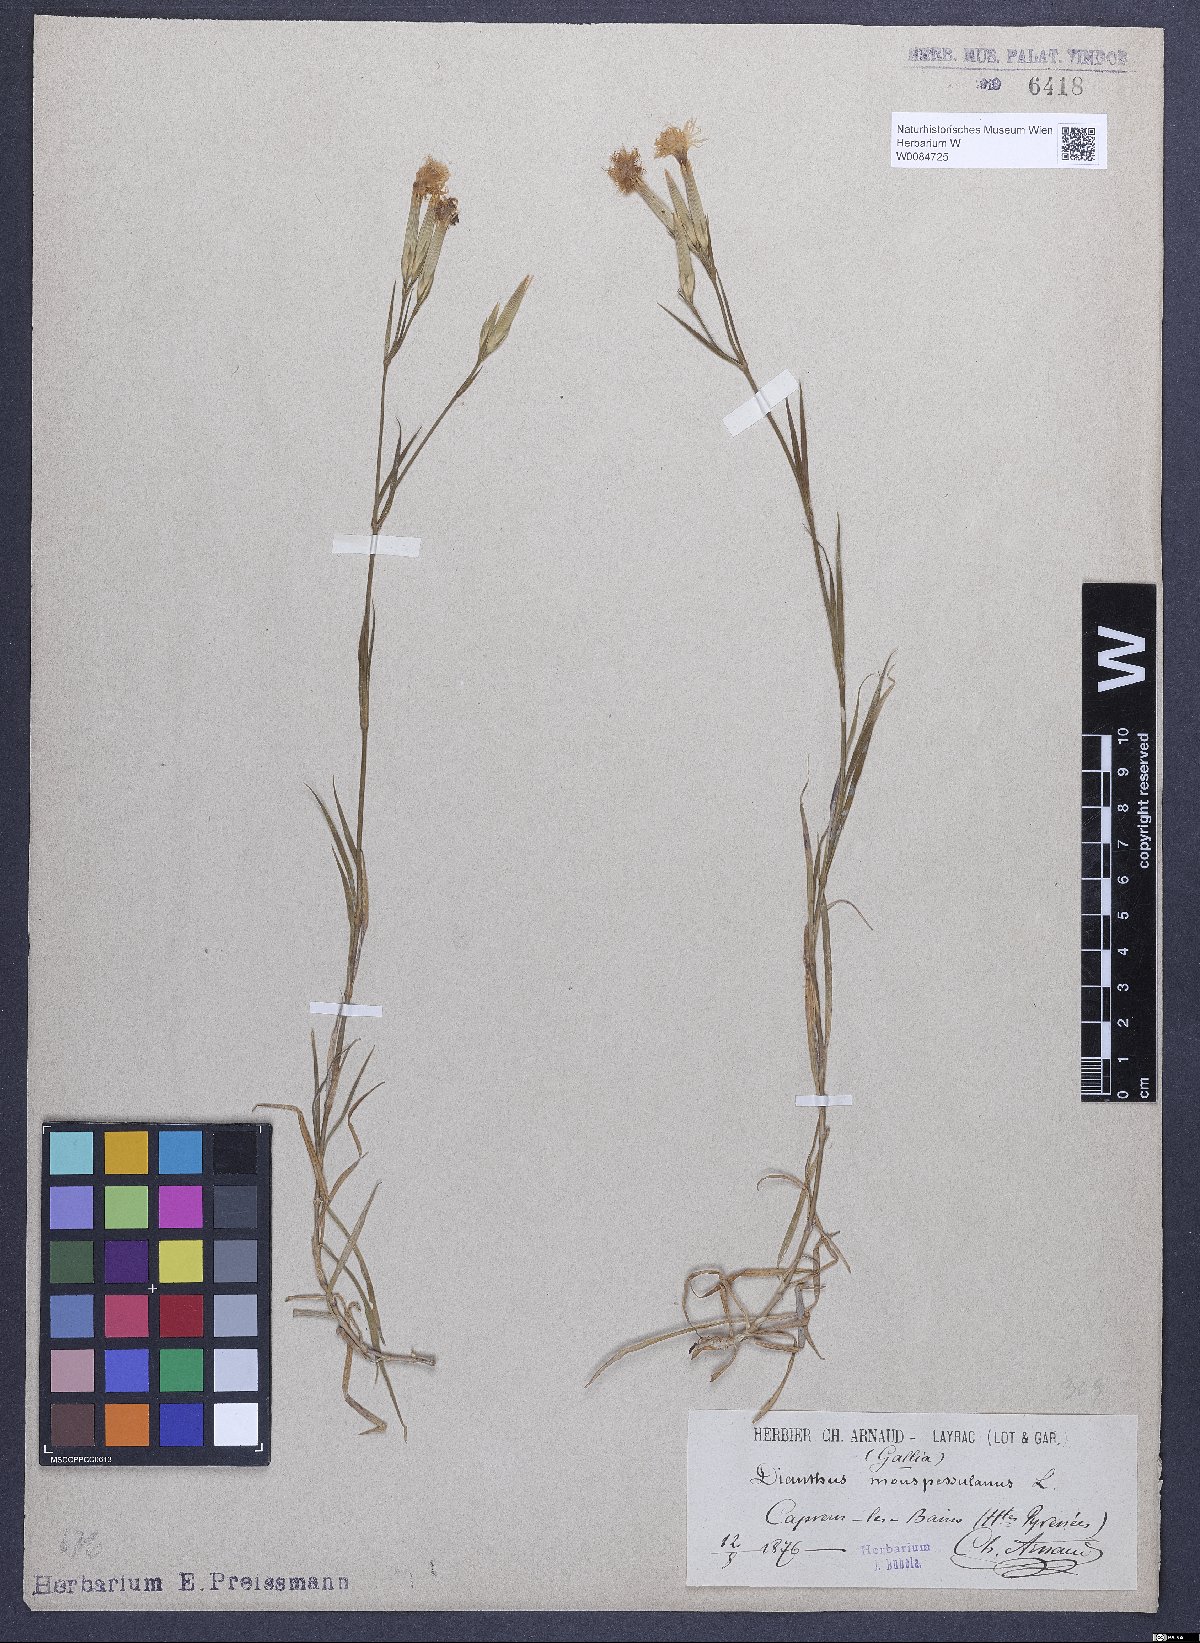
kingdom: Plantae
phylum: Tracheophyta
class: Magnoliopsida
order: Caryophyllales
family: Caryophyllaceae
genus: Dianthus
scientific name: Dianthus hyssopifolius
